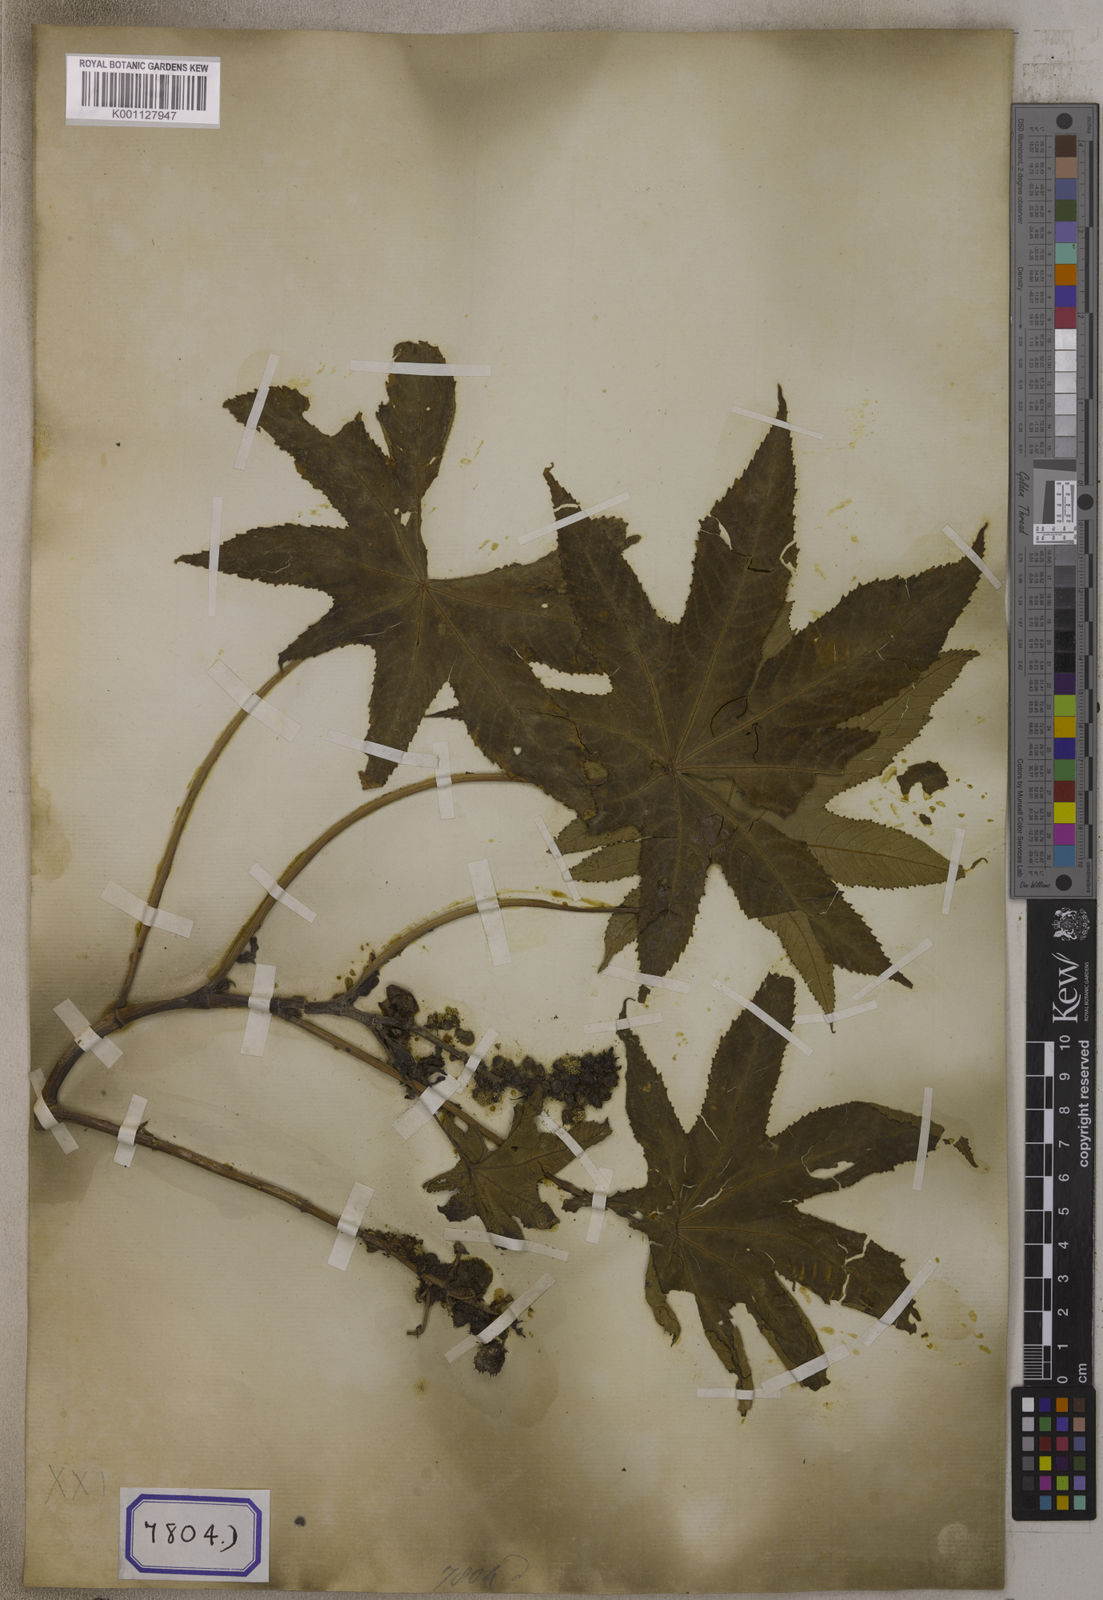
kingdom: Plantae
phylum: Tracheophyta
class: Magnoliopsida
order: Malpighiales
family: Euphorbiaceae
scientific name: Euphorbiaceae
